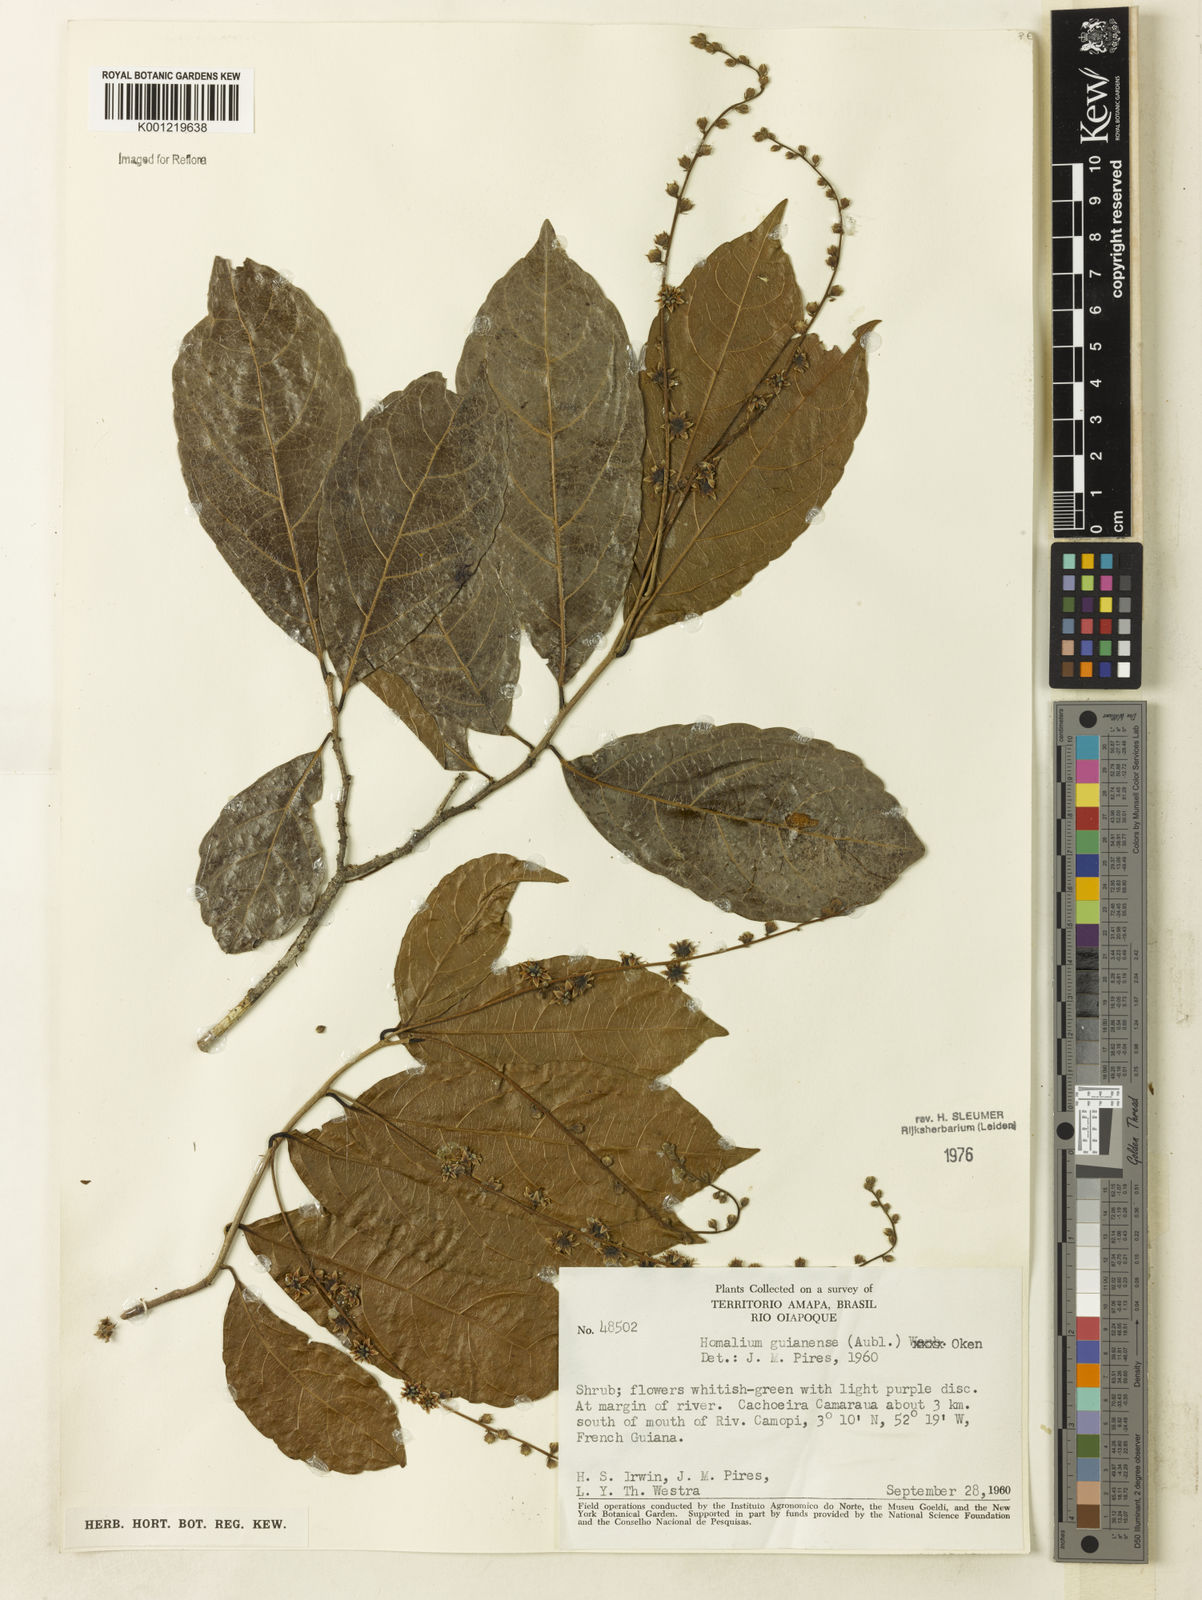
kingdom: Plantae
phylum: Tracheophyta
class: Magnoliopsida
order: Malpighiales
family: Salicaceae
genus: Homalium
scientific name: Homalium guianense
